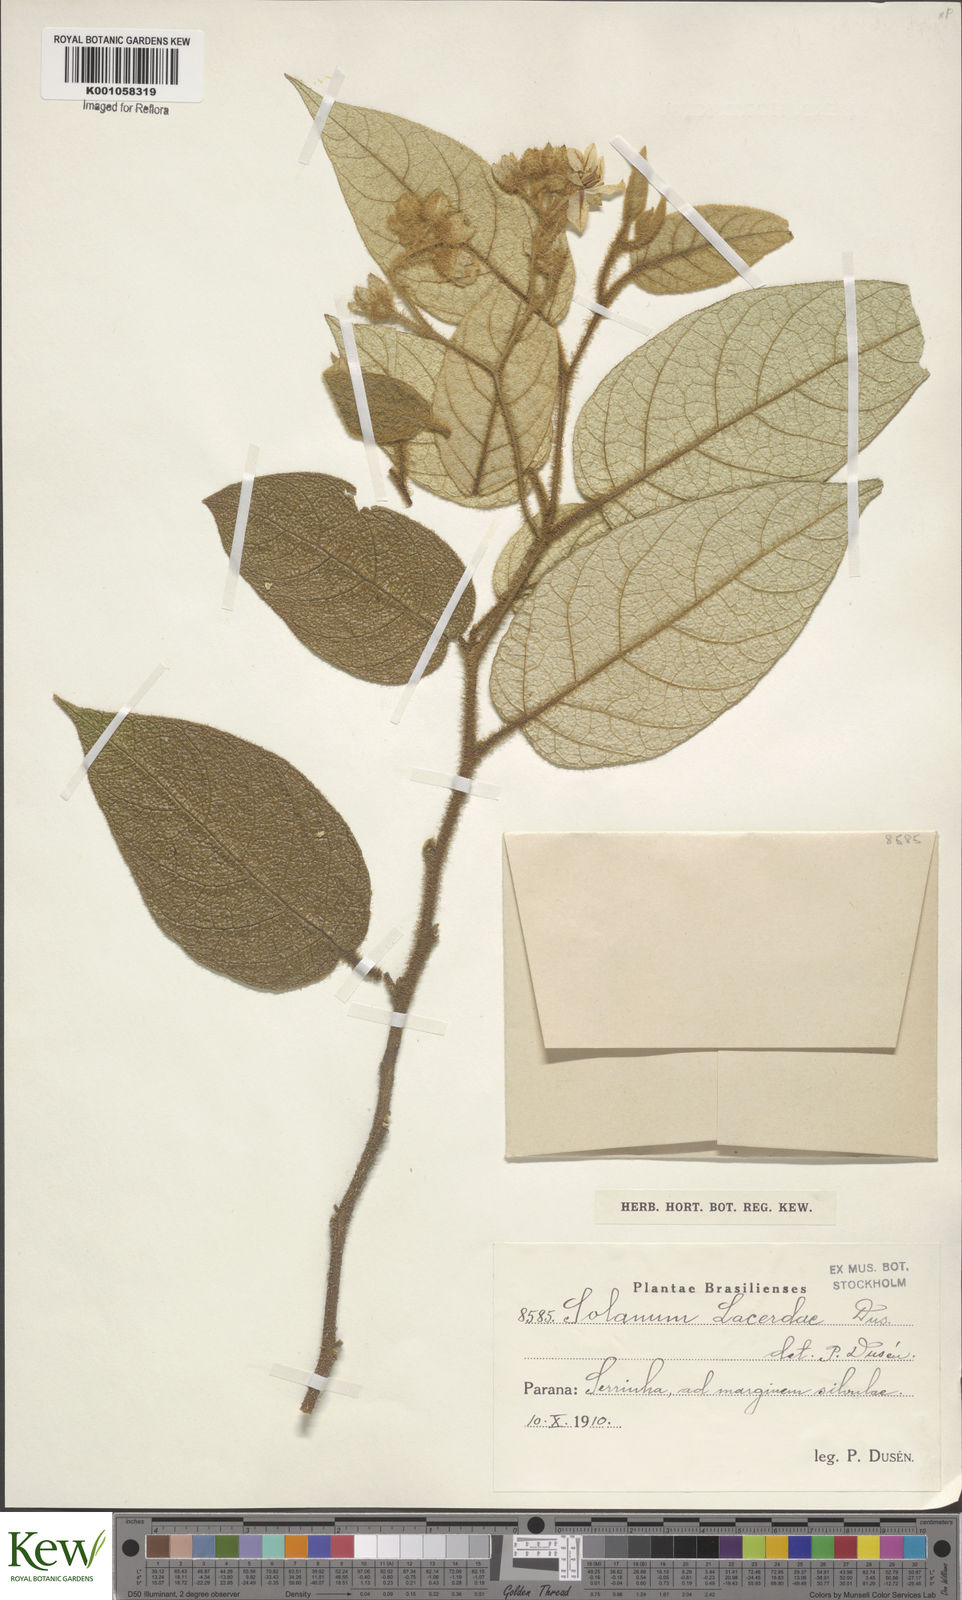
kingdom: Plantae
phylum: Tracheophyta
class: Magnoliopsida
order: Solanales
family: Solanaceae
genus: Solanum
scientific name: Solanum
